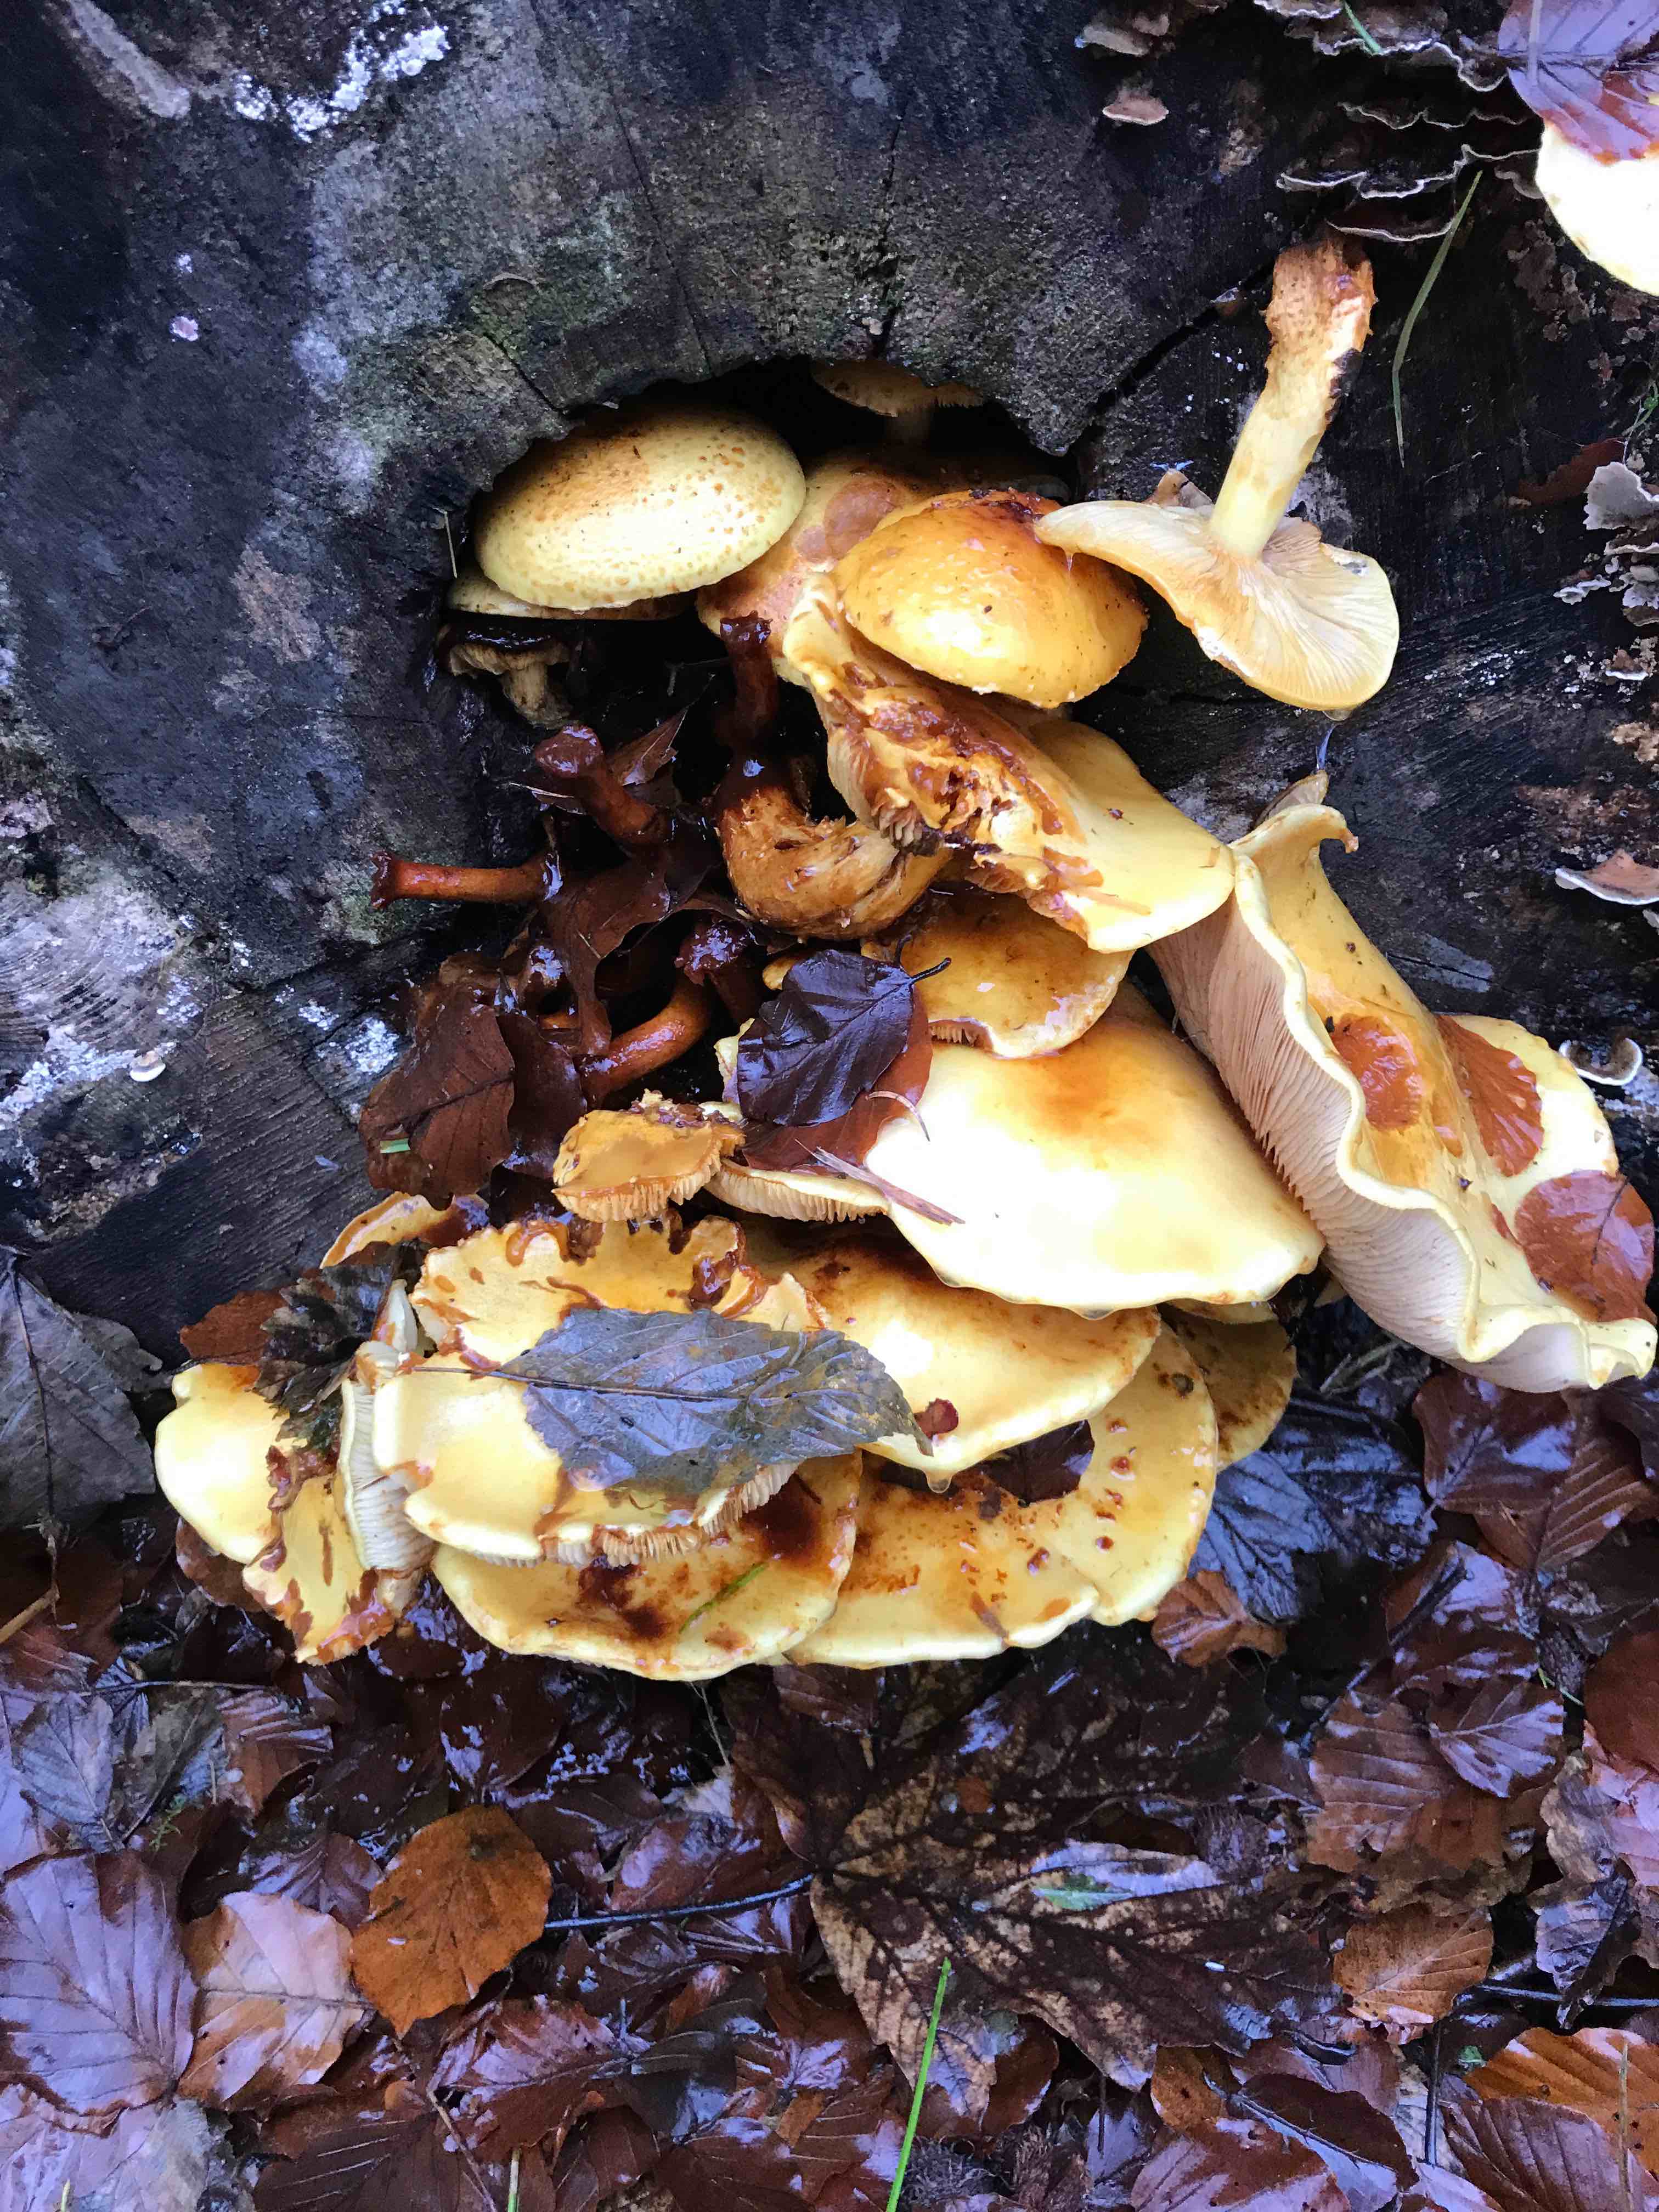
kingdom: Fungi
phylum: Basidiomycota
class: Agaricomycetes
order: Agaricales
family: Strophariaceae
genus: Pholiota
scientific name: Pholiota adiposa
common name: højtsiddende skælhat
